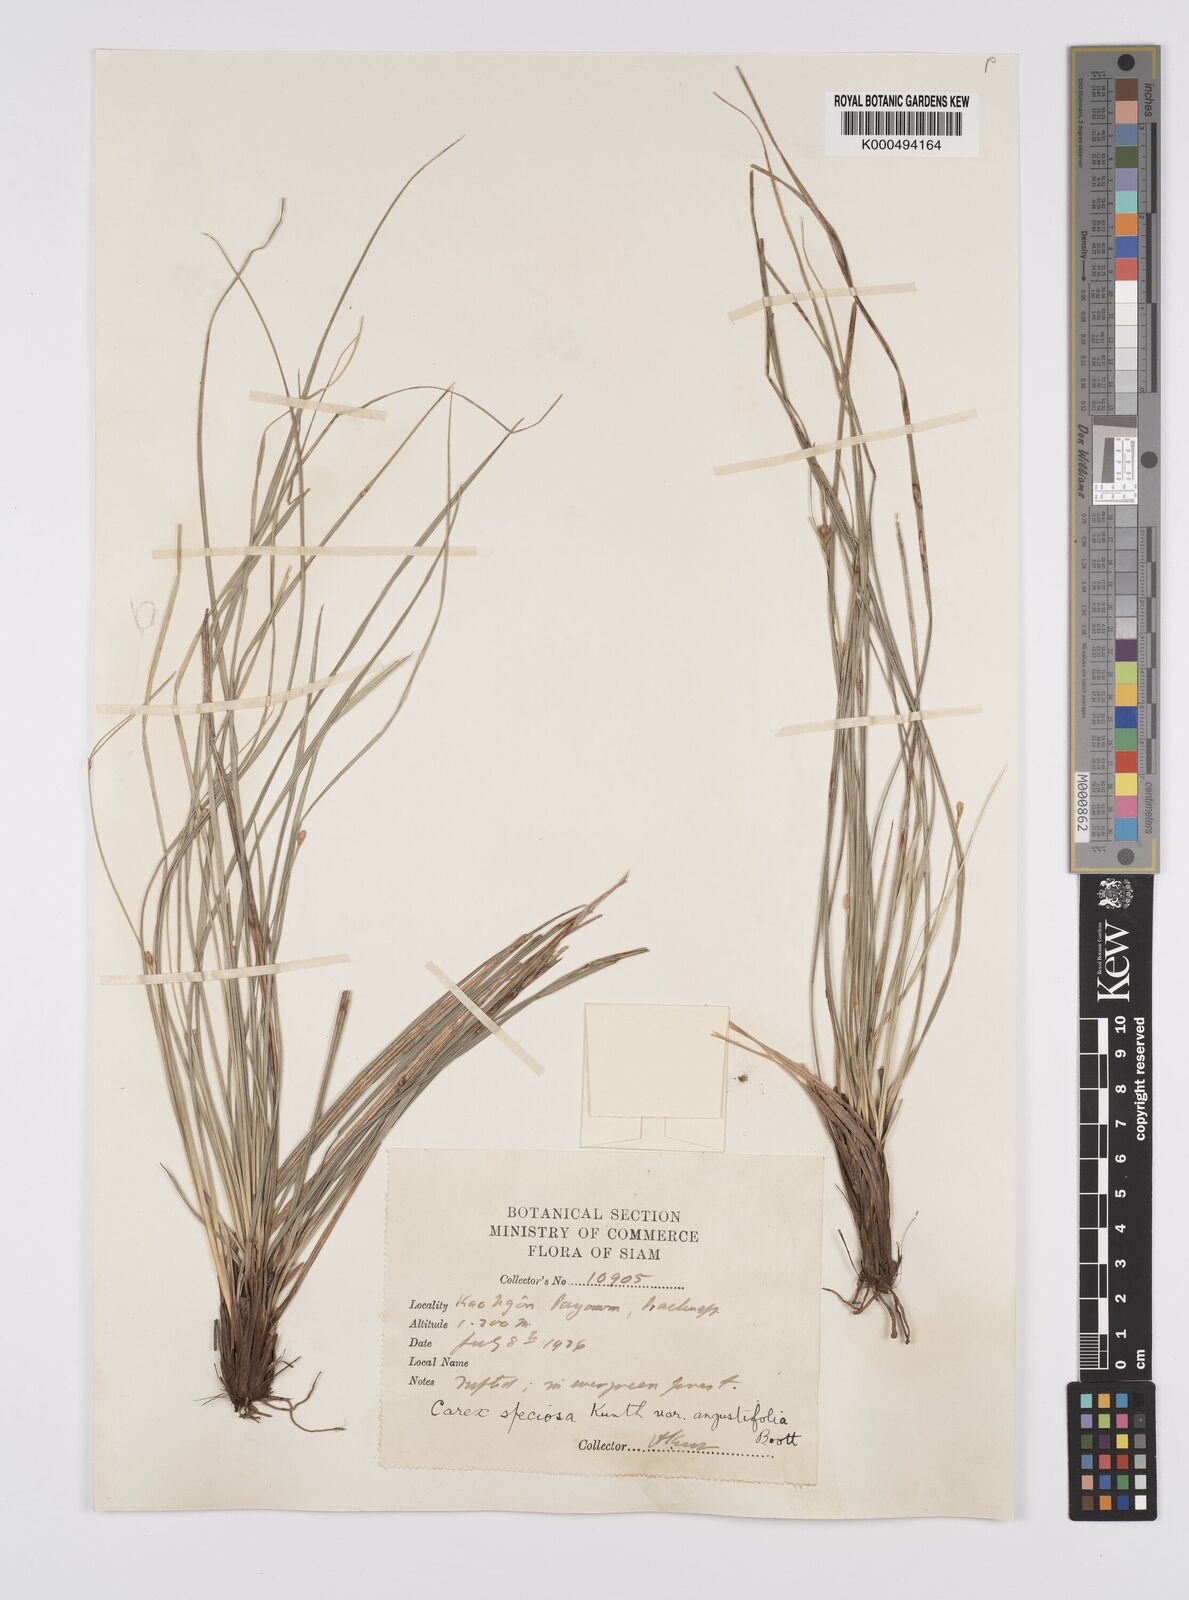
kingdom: Plantae
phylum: Tracheophyta
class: Liliopsida
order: Poales
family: Cyperaceae
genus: Carex
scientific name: Carex speciosa
